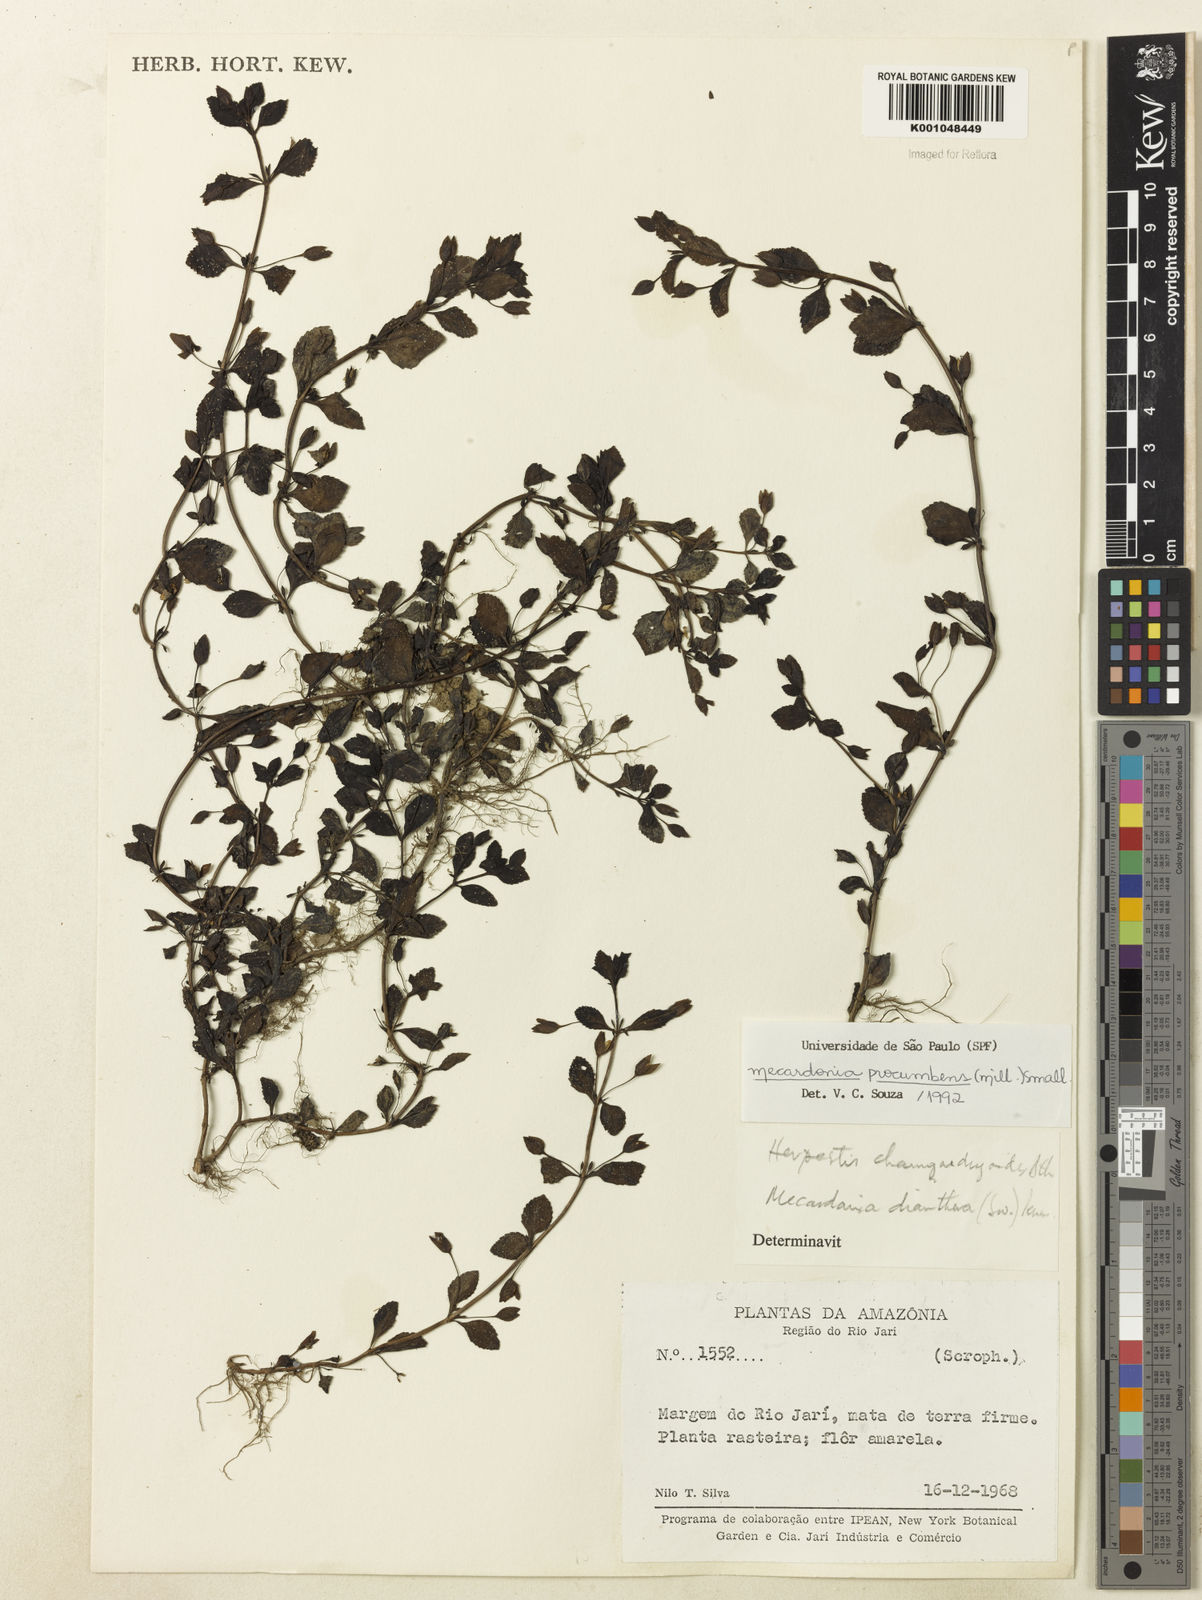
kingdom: Plantae
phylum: Tracheophyta
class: Magnoliopsida
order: Lamiales
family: Plantaginaceae
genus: Mecardonia
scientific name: Mecardonia procumbens
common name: Baby jump-up
